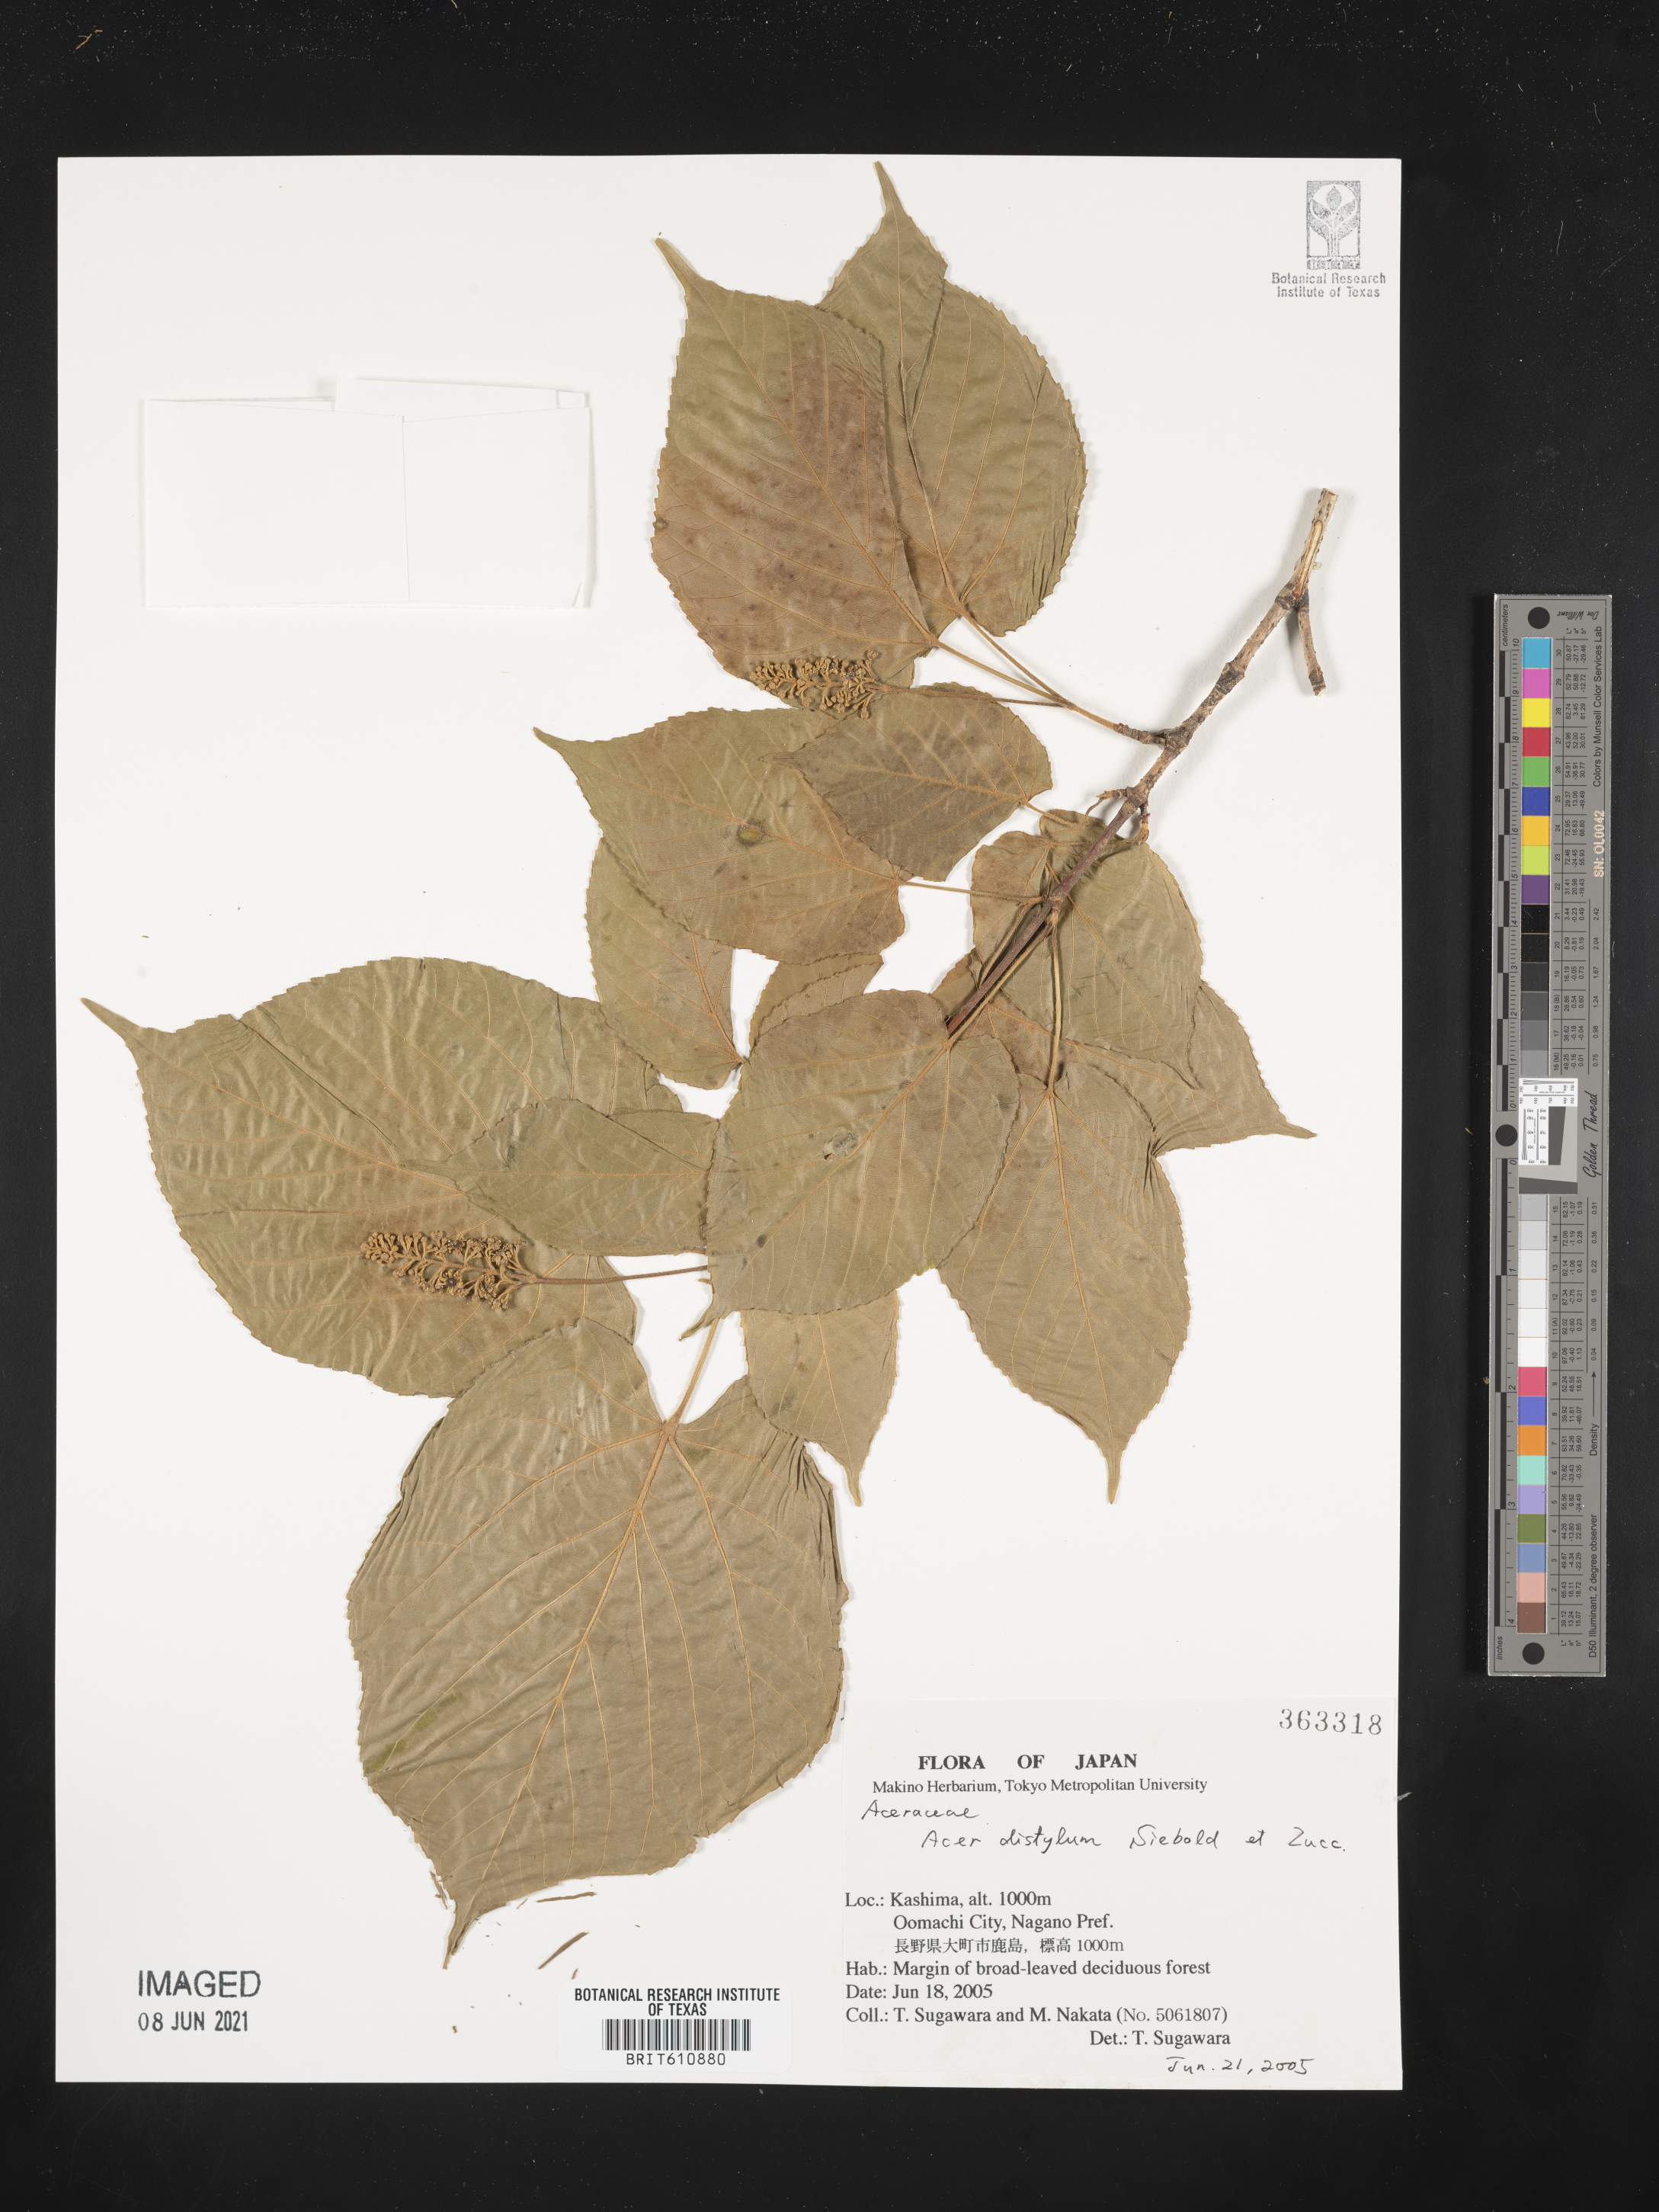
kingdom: Plantae
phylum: Tracheophyta
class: Magnoliopsida
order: Sapindales
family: Sapindaceae
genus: Acer
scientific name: Acer distylum
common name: Lime-leaved maple
